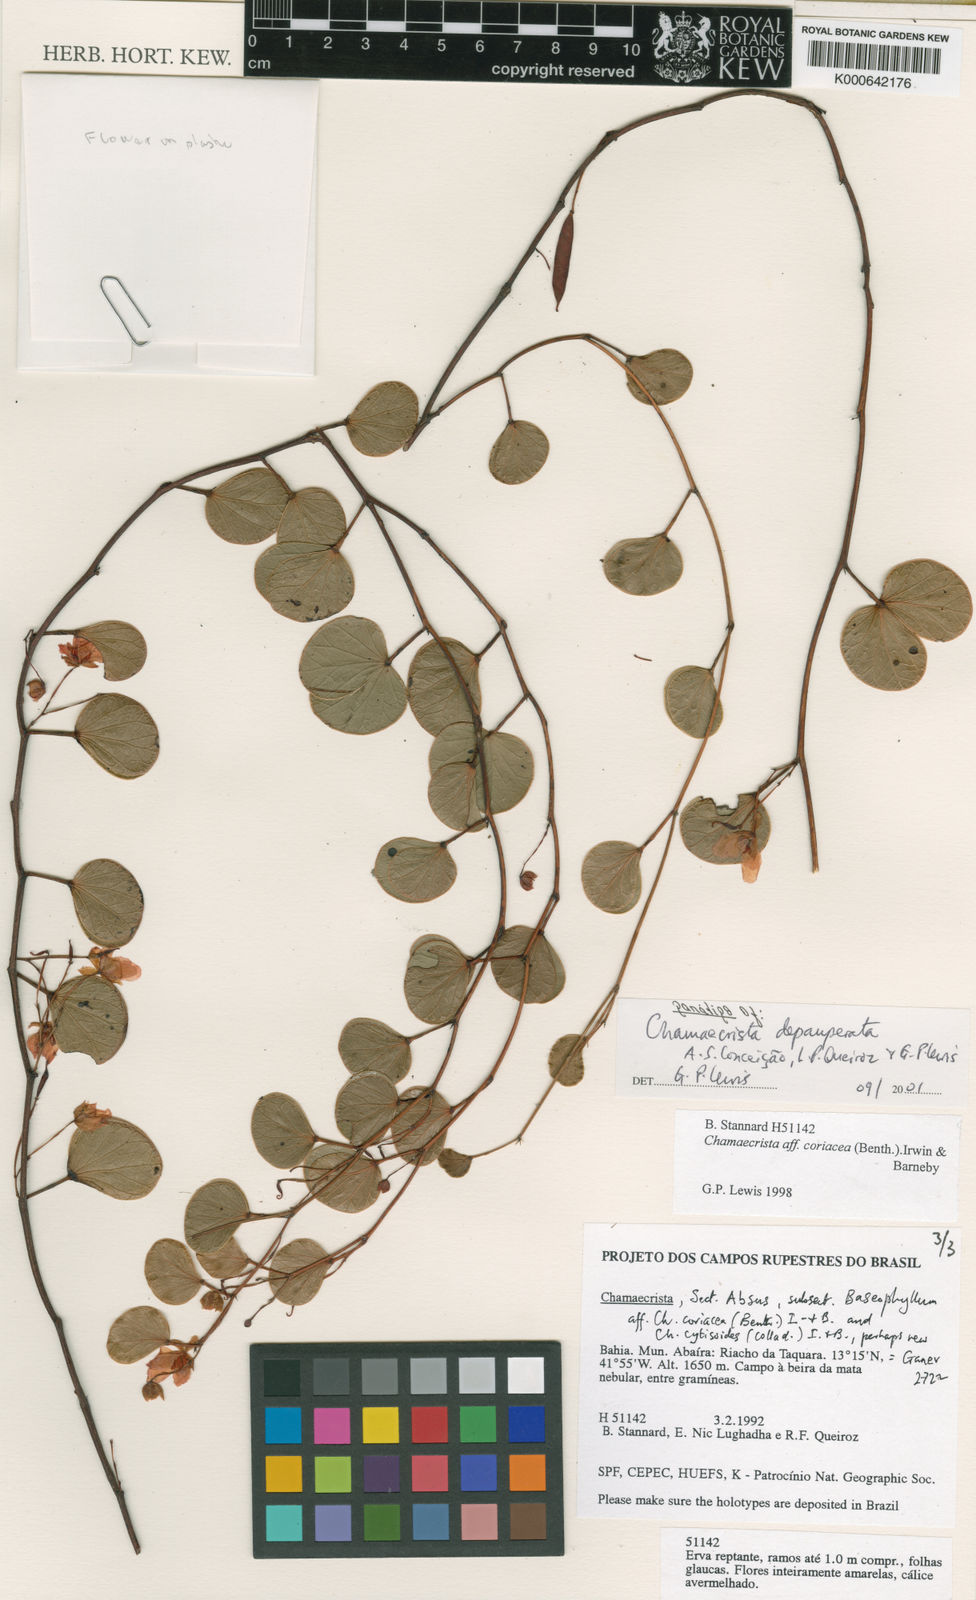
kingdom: Plantae
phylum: Tracheophyta
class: Magnoliopsida
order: Fabales
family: Fabaceae
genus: Chamaecrista
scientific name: Chamaecrista depauperata
